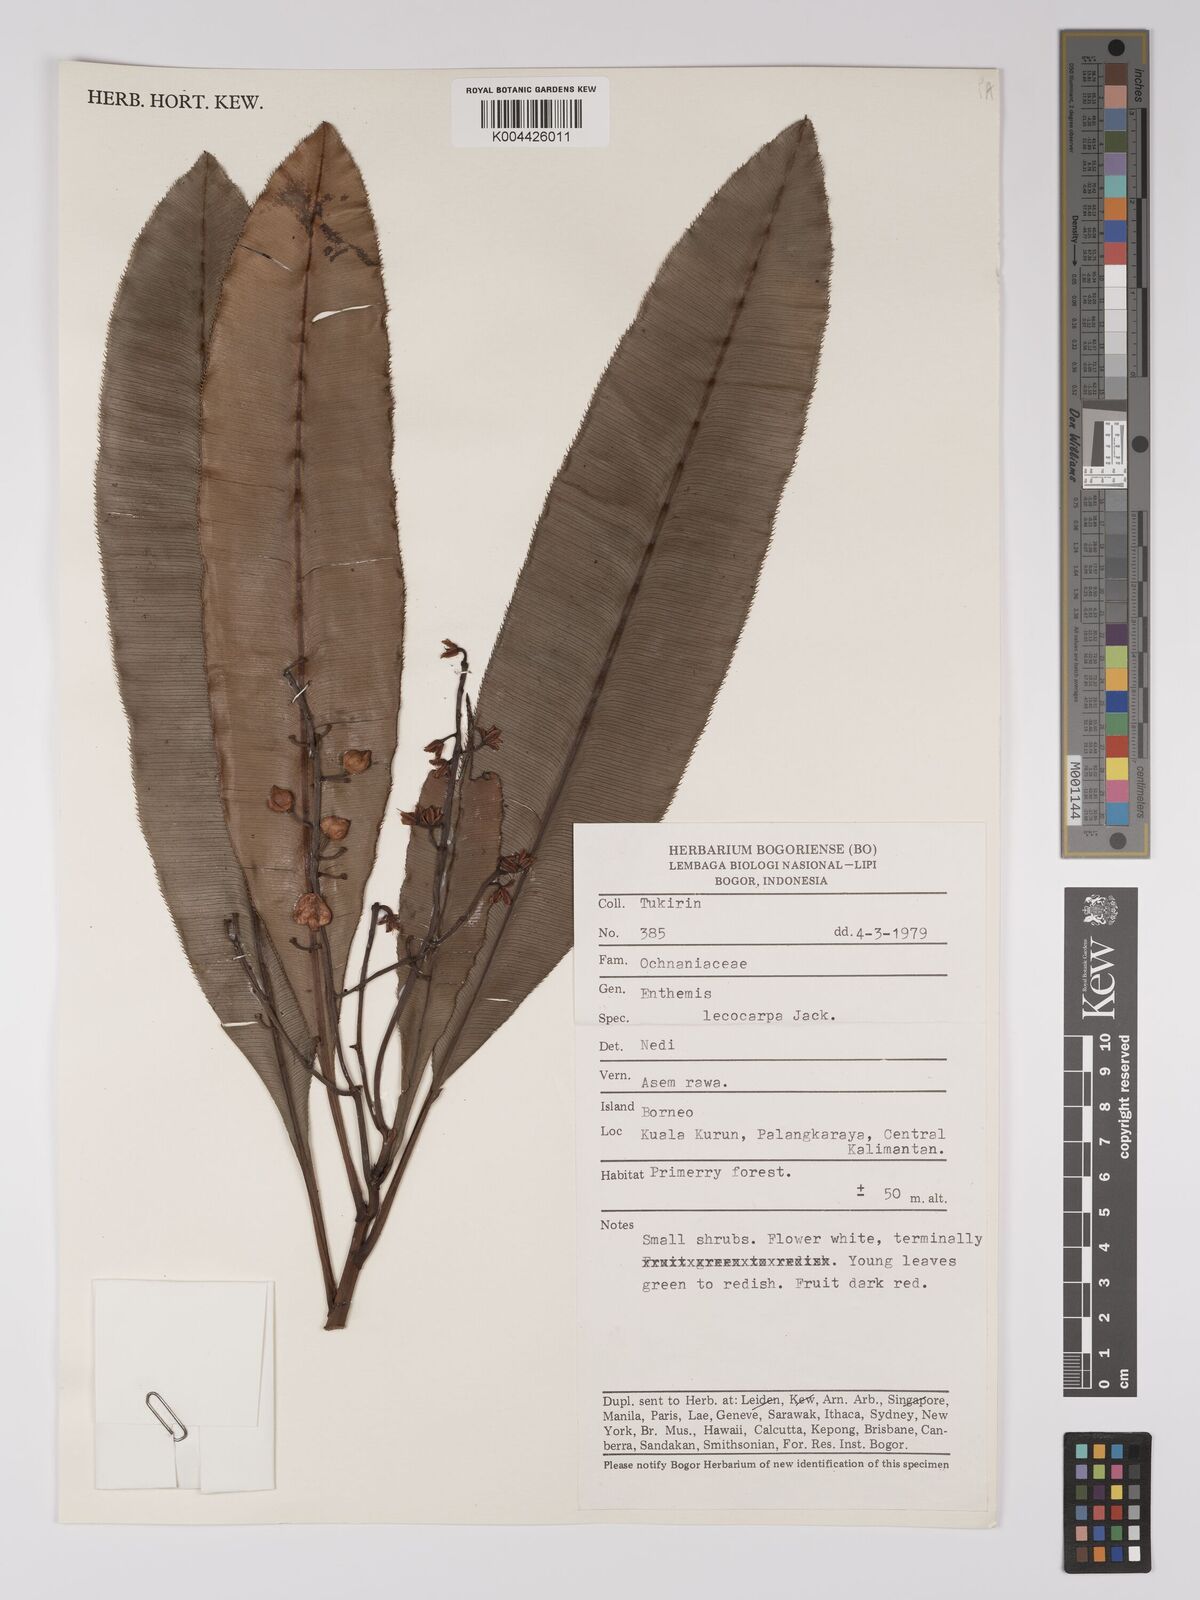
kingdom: Plantae
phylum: Tracheophyta
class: Magnoliopsida
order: Malpighiales
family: Ochnaceae
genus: Euthemis
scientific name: Euthemis leucocarpa
